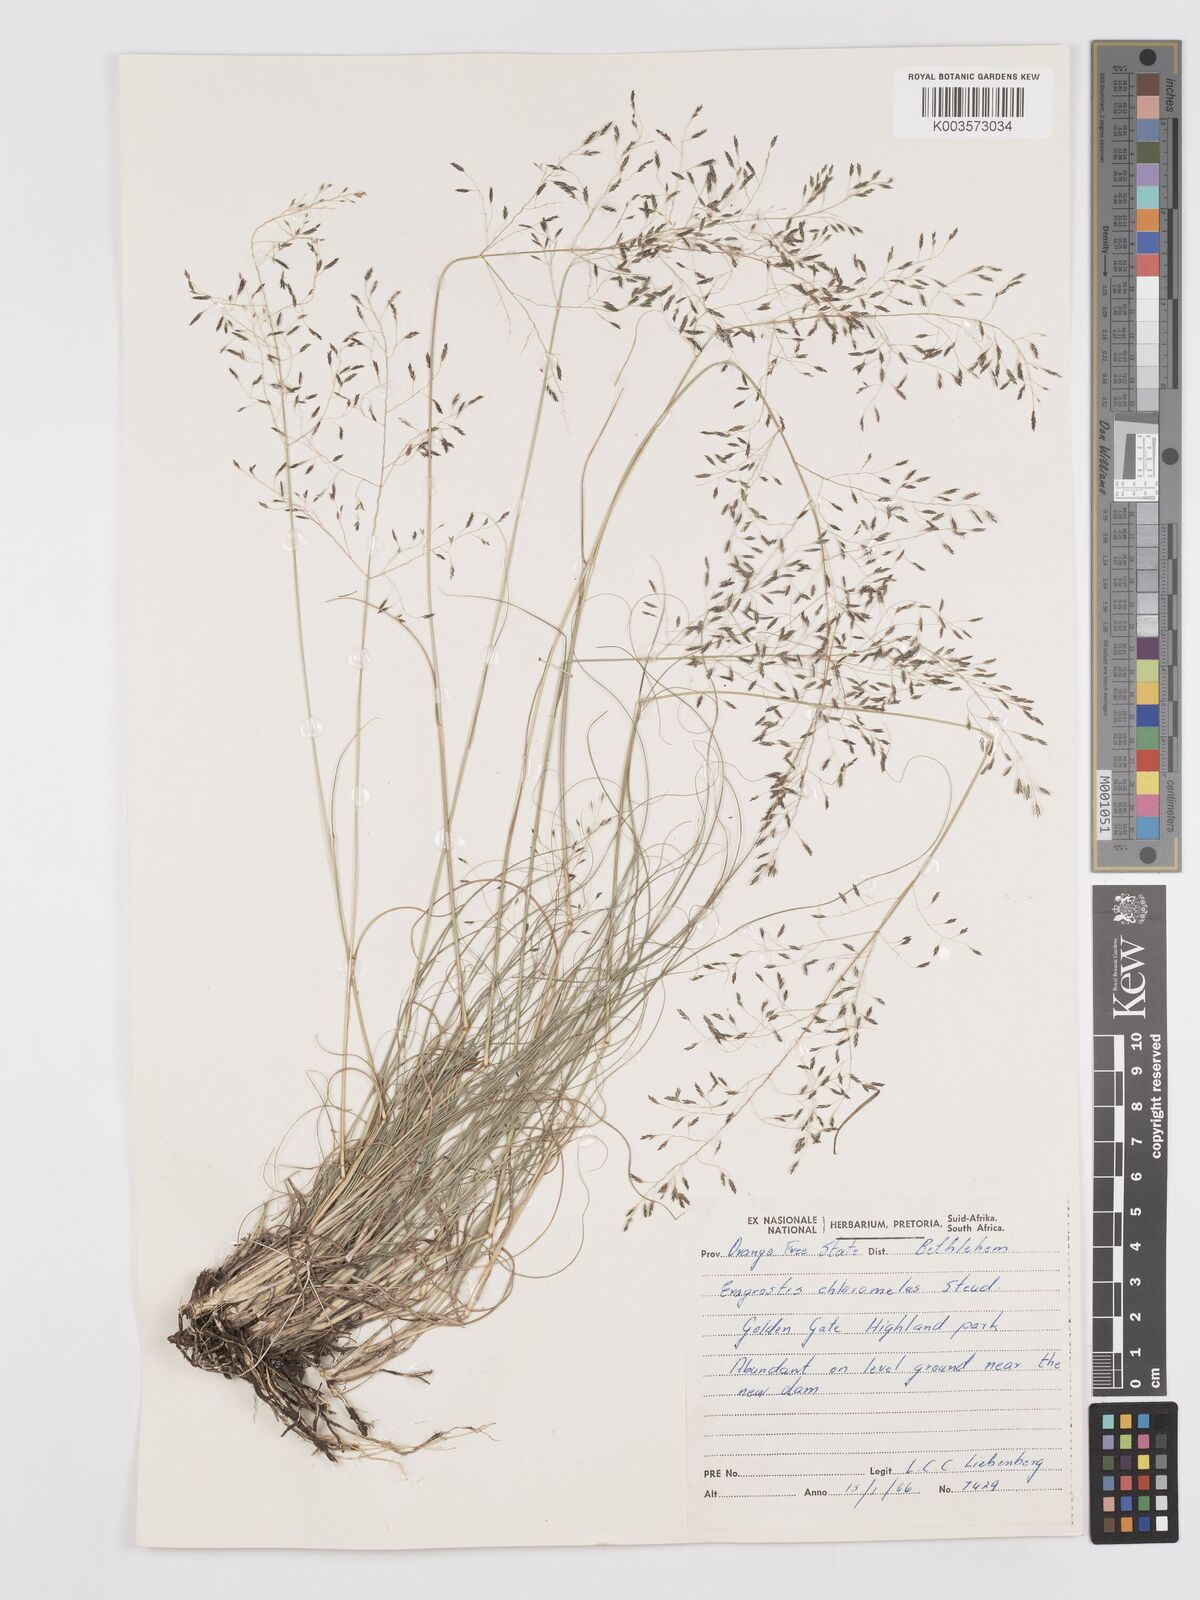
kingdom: Plantae
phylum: Tracheophyta
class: Liliopsida
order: Poales
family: Poaceae
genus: Eragrostis
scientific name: Eragrostis curvula
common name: African love-grass
